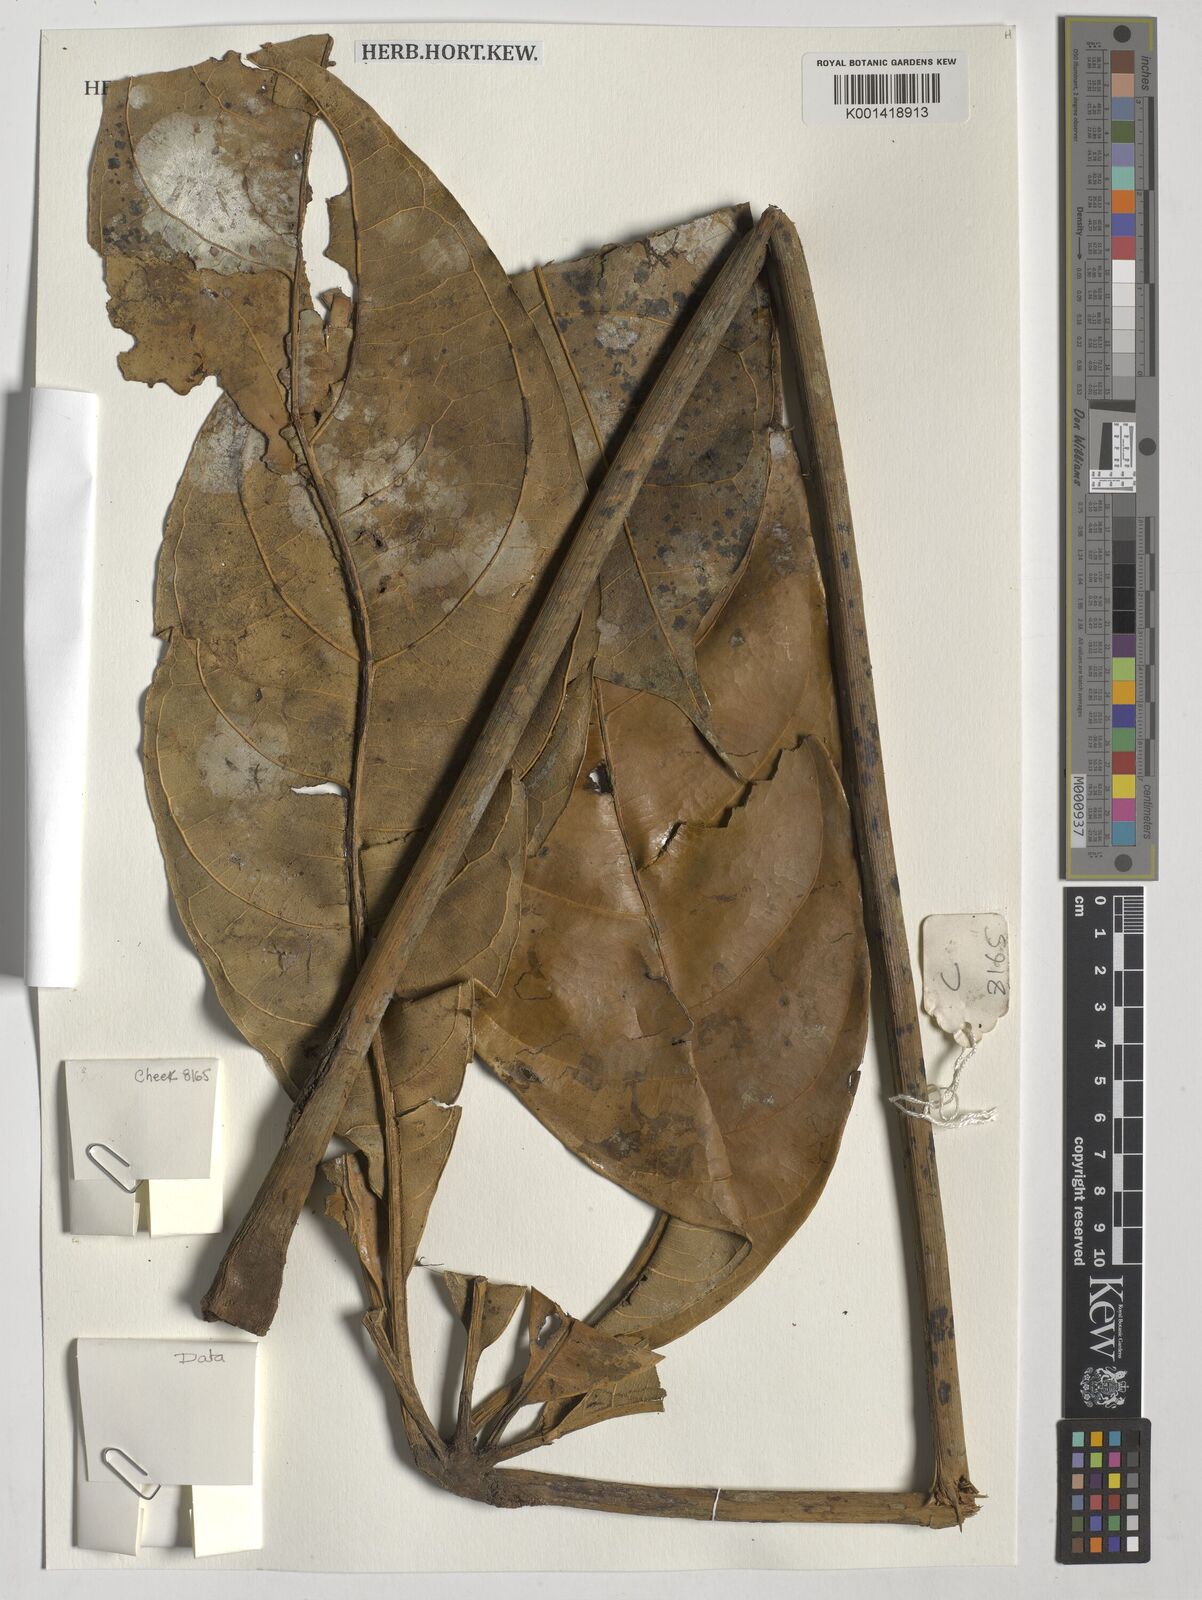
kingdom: Plantae
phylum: Tracheophyta
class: Magnoliopsida
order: Malvales
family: Malvaceae
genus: Cola
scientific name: Cola chlamydantha
